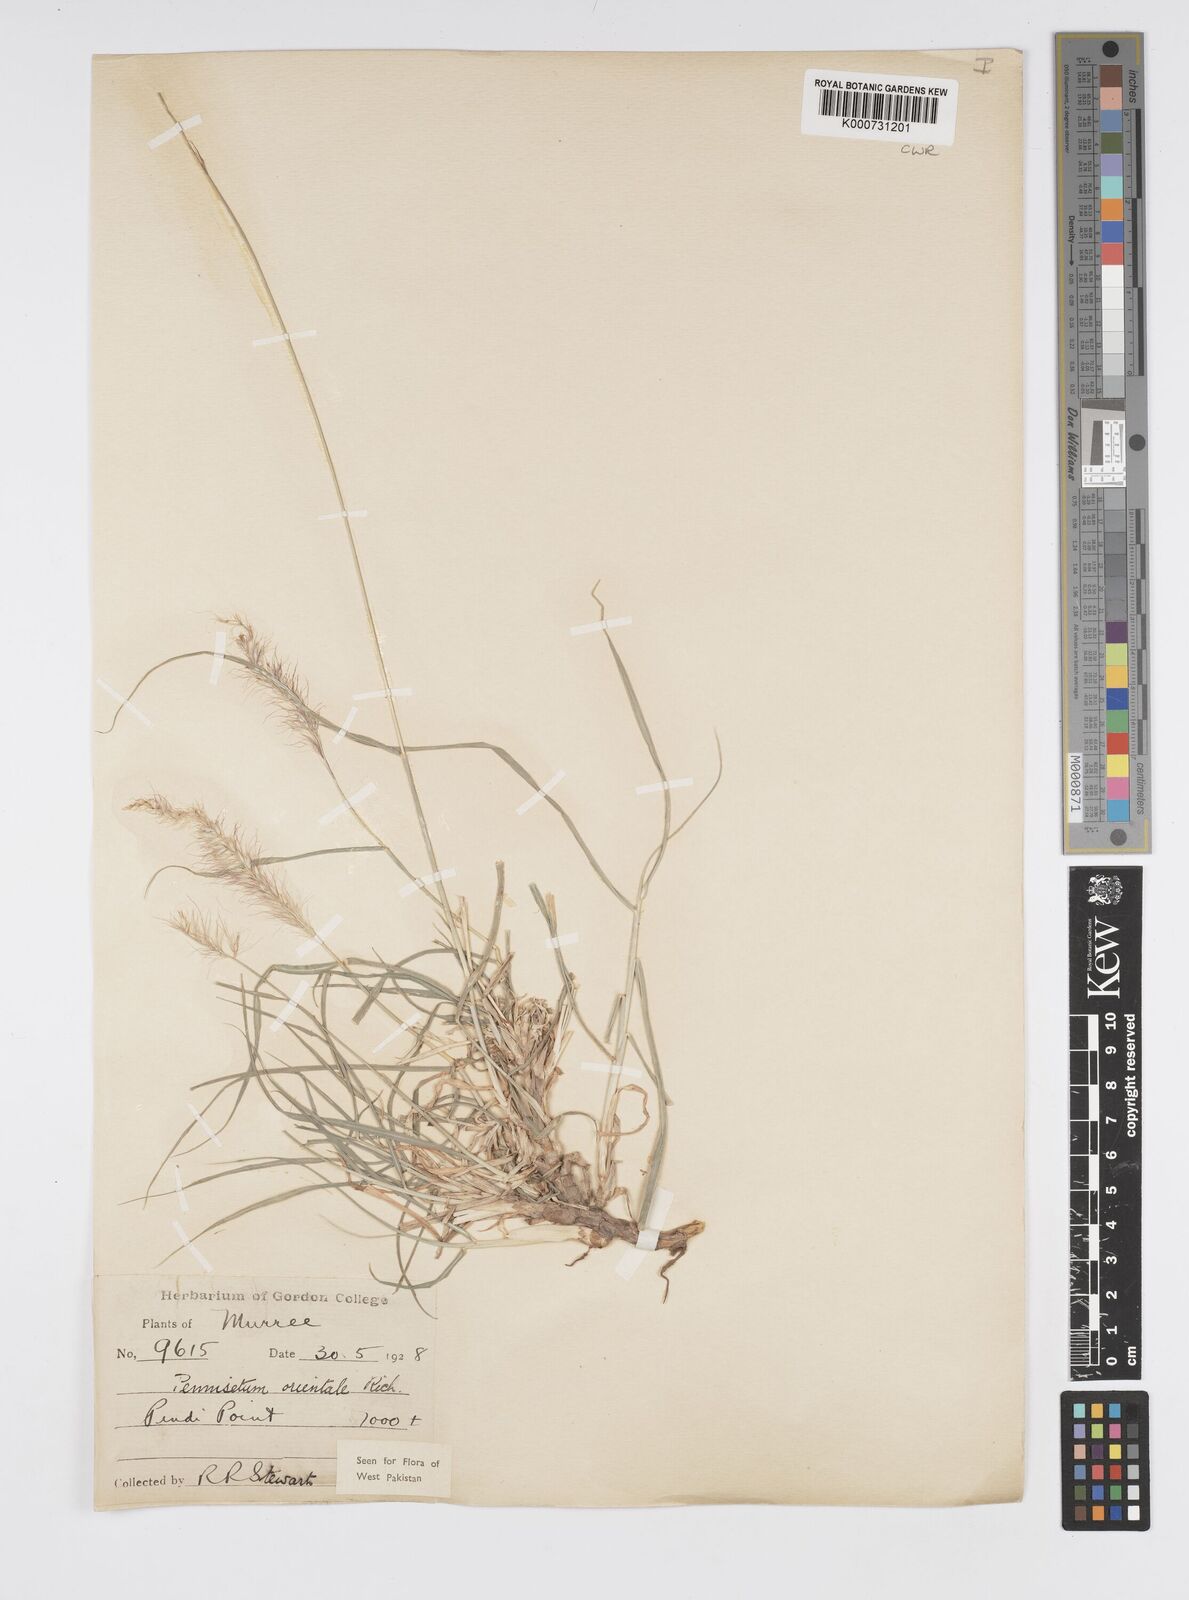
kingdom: Plantae
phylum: Tracheophyta
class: Liliopsida
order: Poales
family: Poaceae
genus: Cenchrus
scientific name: Cenchrus orientalis
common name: Oriental fountain grass
